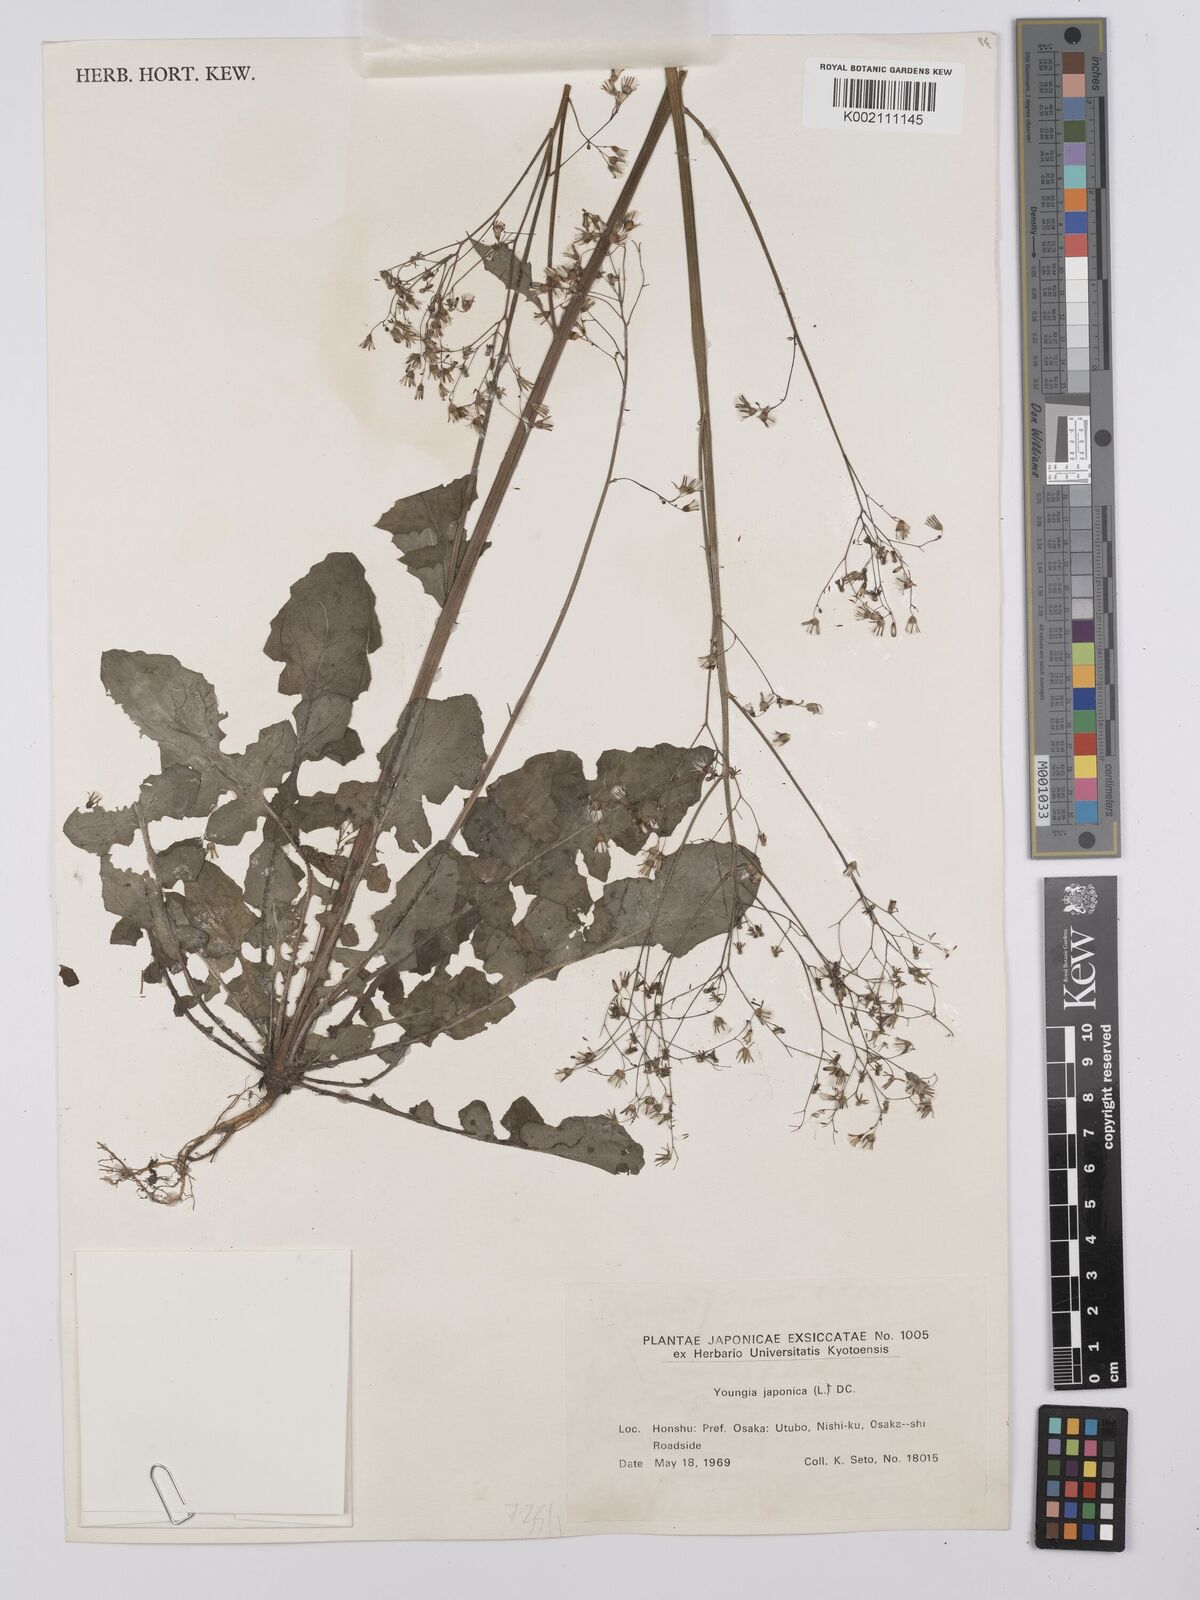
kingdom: Plantae
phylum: Tracheophyta
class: Magnoliopsida
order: Asterales
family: Asteraceae
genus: Youngia
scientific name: Youngia japonica
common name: Oriental false hawksbeard
